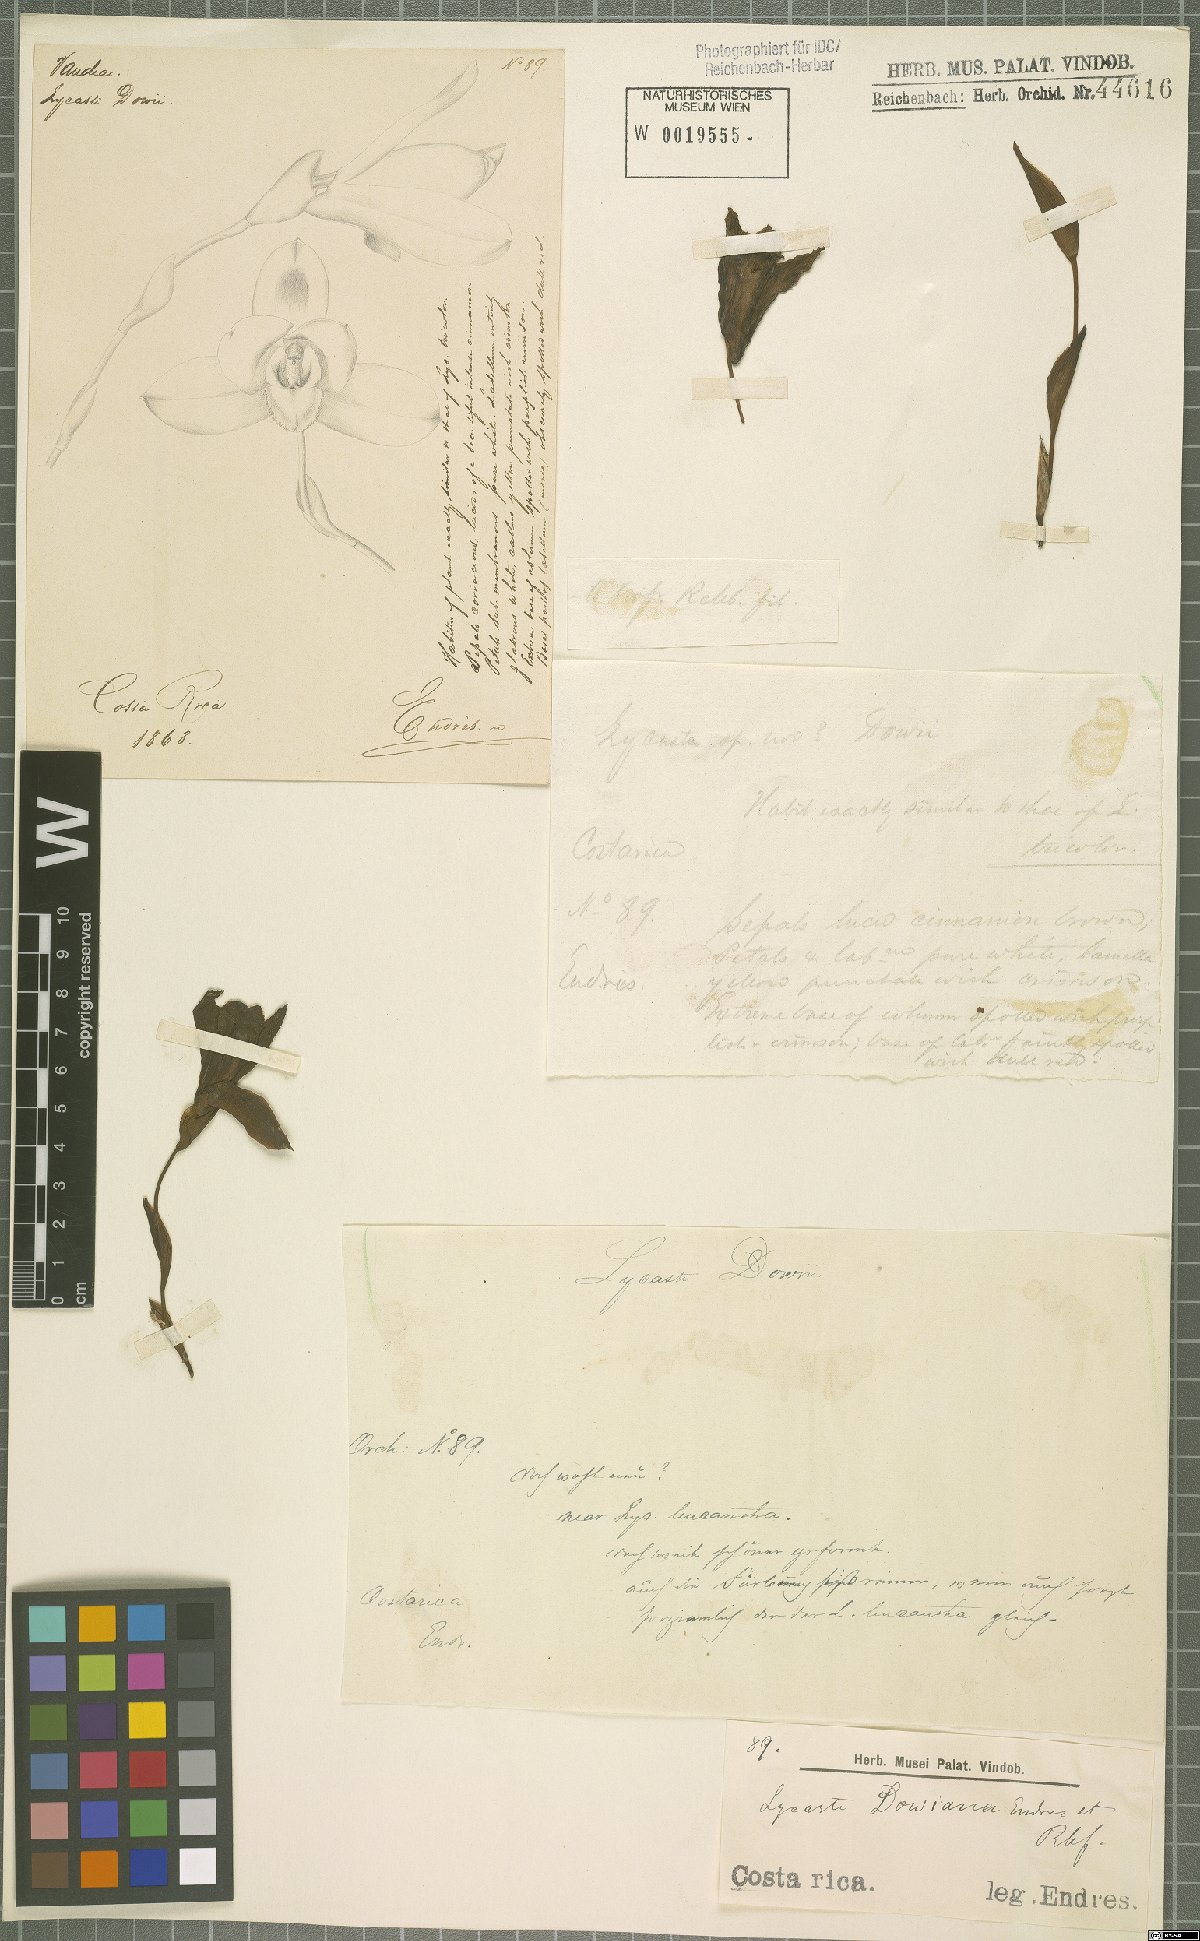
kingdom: Plantae
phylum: Tracheophyta
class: Liliopsida
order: Asparagales
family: Orchidaceae
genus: Lycaste
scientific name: Lycaste dowiana
